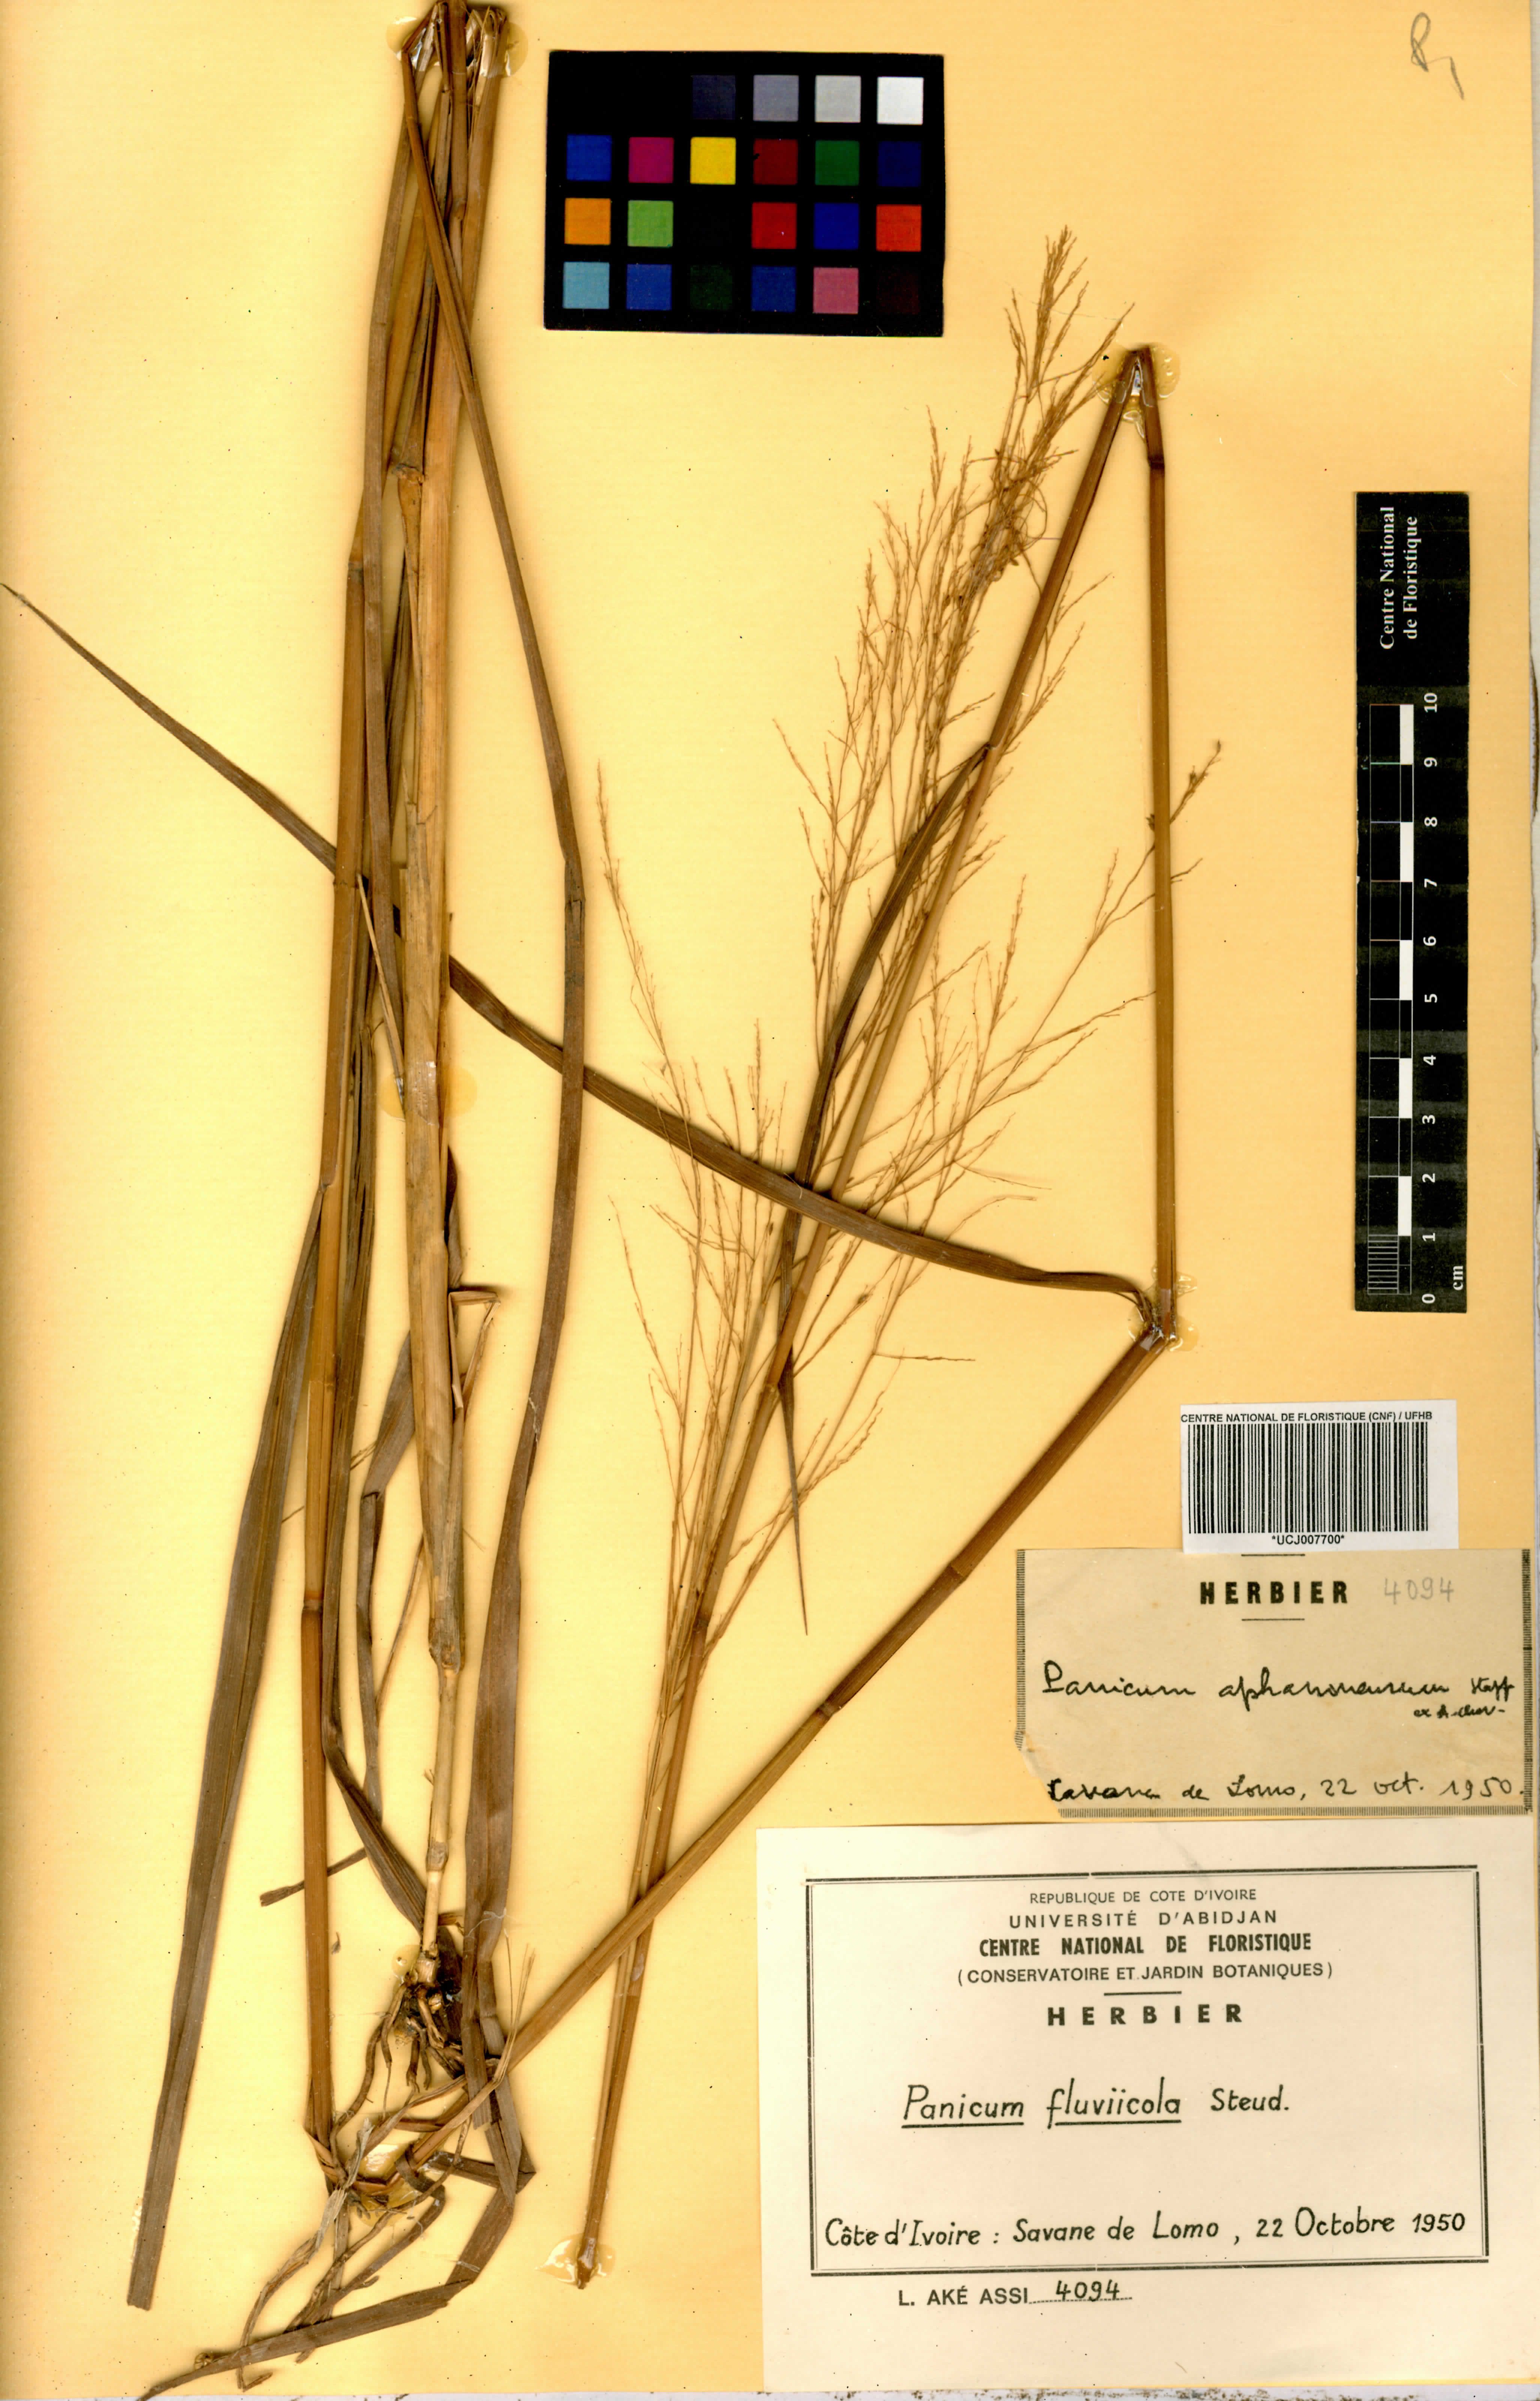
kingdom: Plantae
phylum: Tracheophyta
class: Liliopsida
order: Poales
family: Poaceae
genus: Panicum
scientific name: Panicum fluviicola
